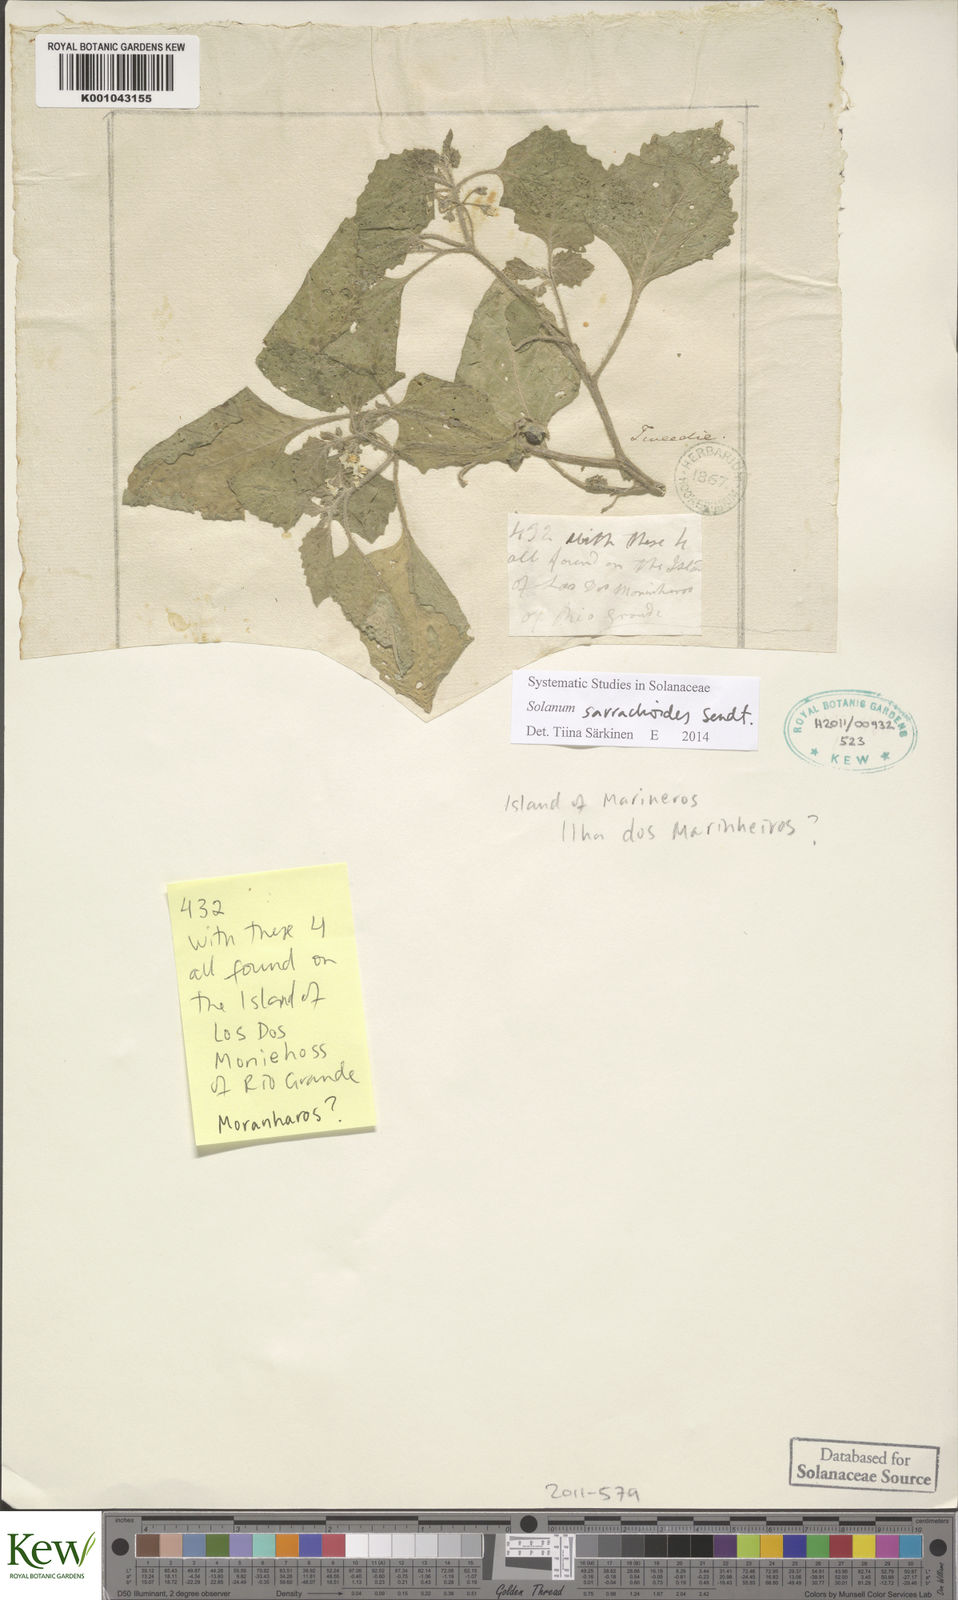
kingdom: Plantae
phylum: Tracheophyta
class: Magnoliopsida
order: Solanales
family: Solanaceae
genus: Solanum
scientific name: Solanum sarrachoides
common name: Leafy-fruited nightshade
